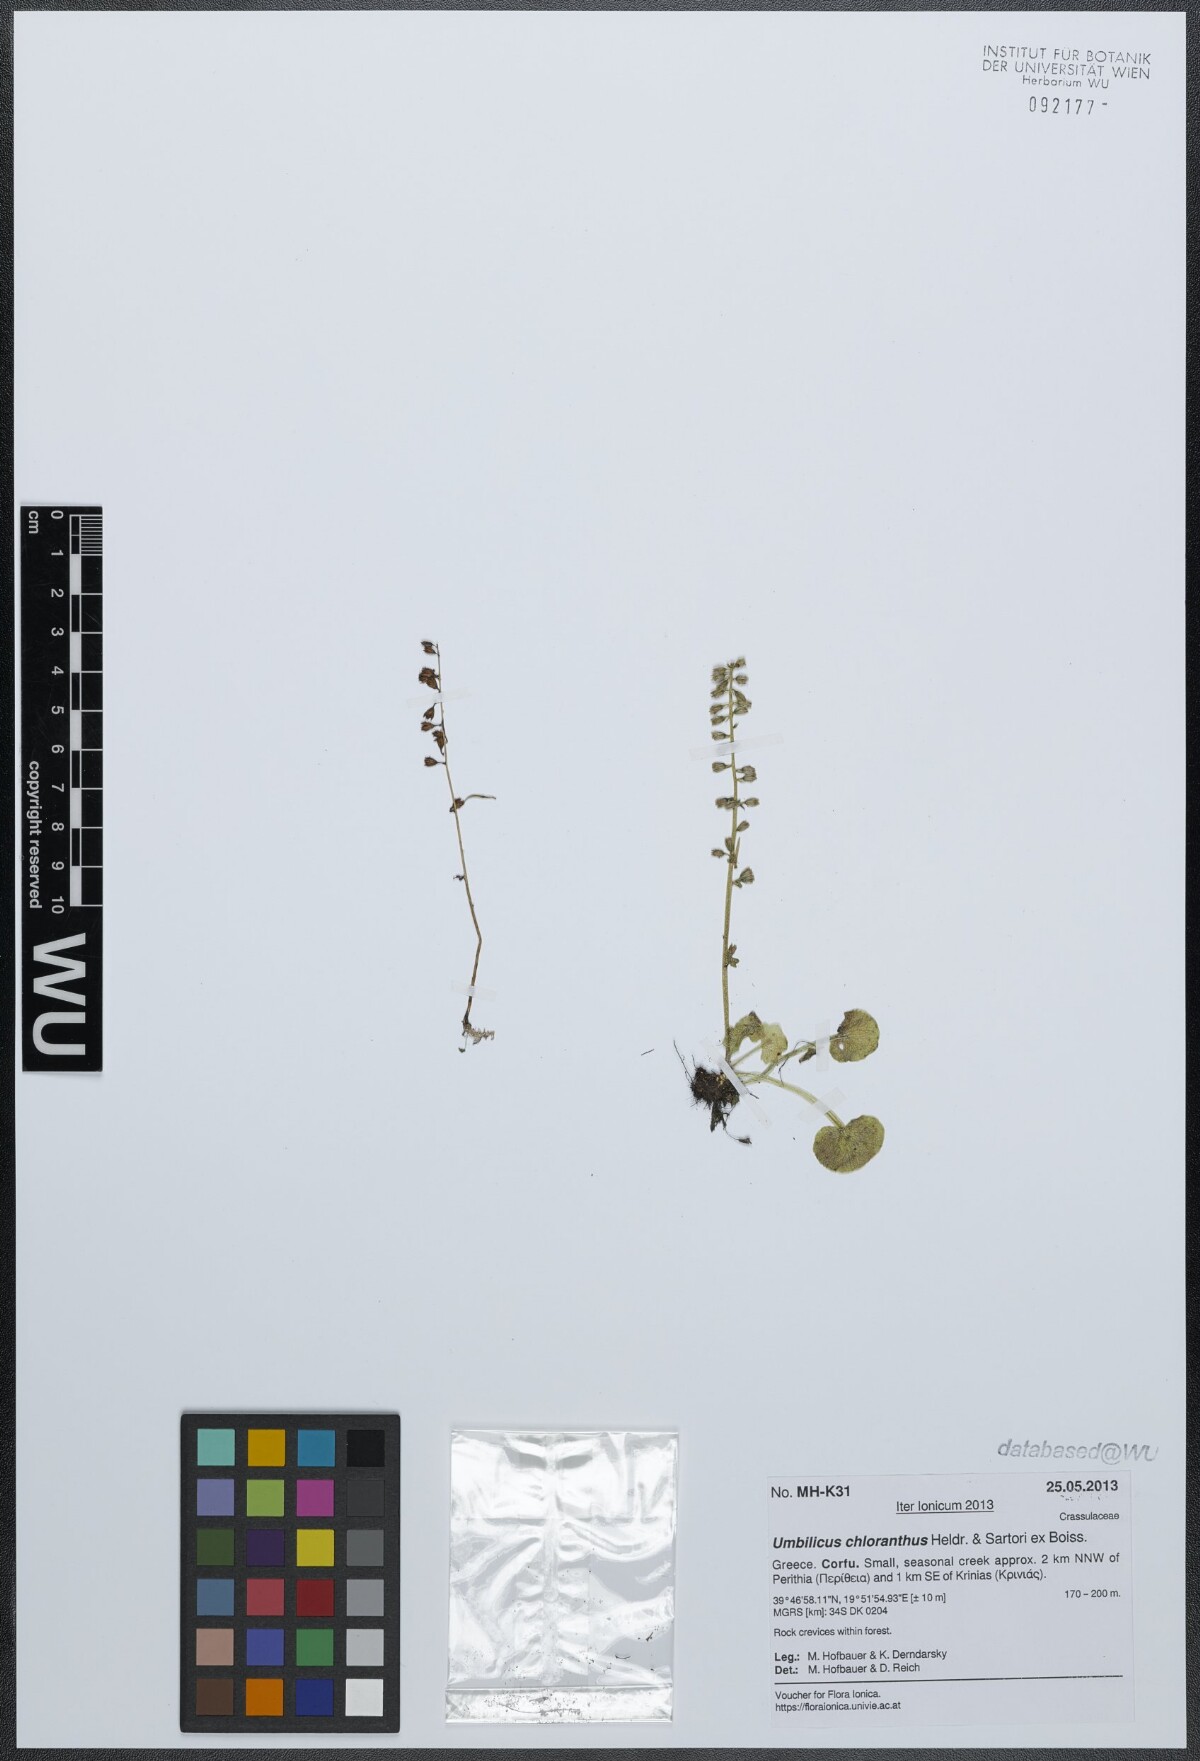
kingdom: Plantae
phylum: Tracheophyta
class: Magnoliopsida
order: Saxifragales
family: Crassulaceae
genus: Umbilicus
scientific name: Umbilicus chloranthus
